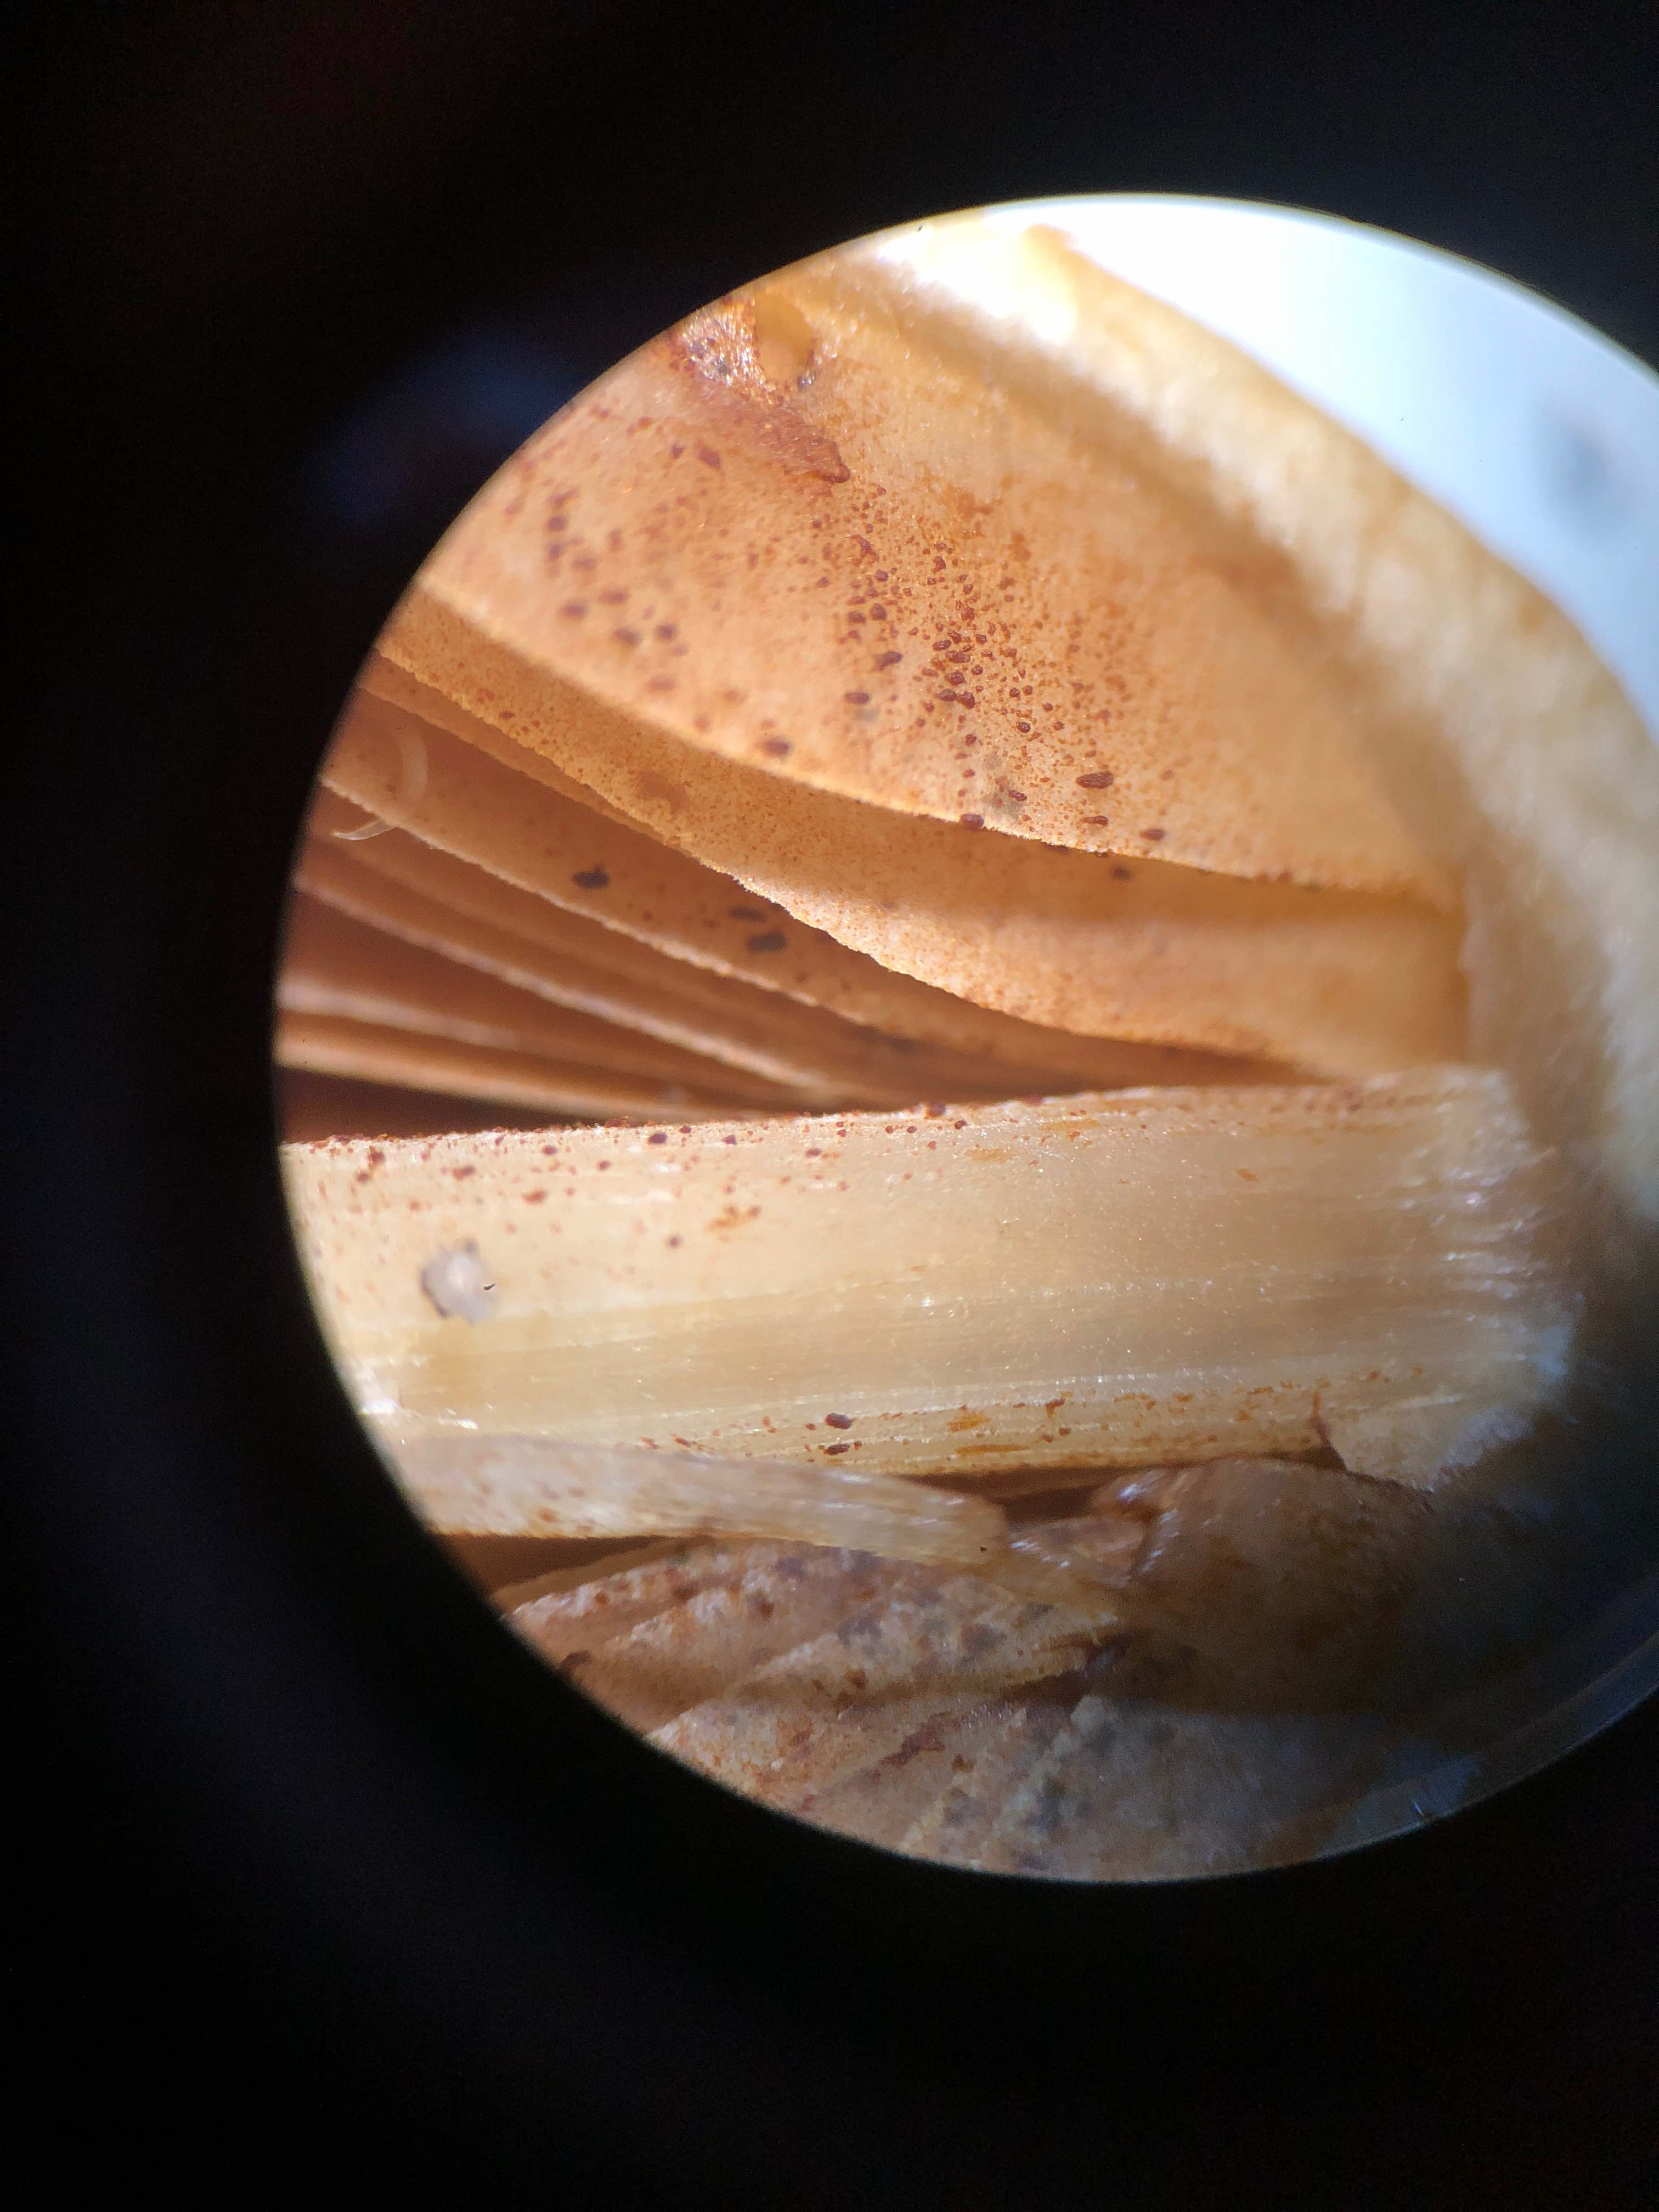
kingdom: Fungi
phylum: Basidiomycota
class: Agaricomycetes
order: Agaricales
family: Bolbitiaceae
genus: Conocybe
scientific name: Conocybe
